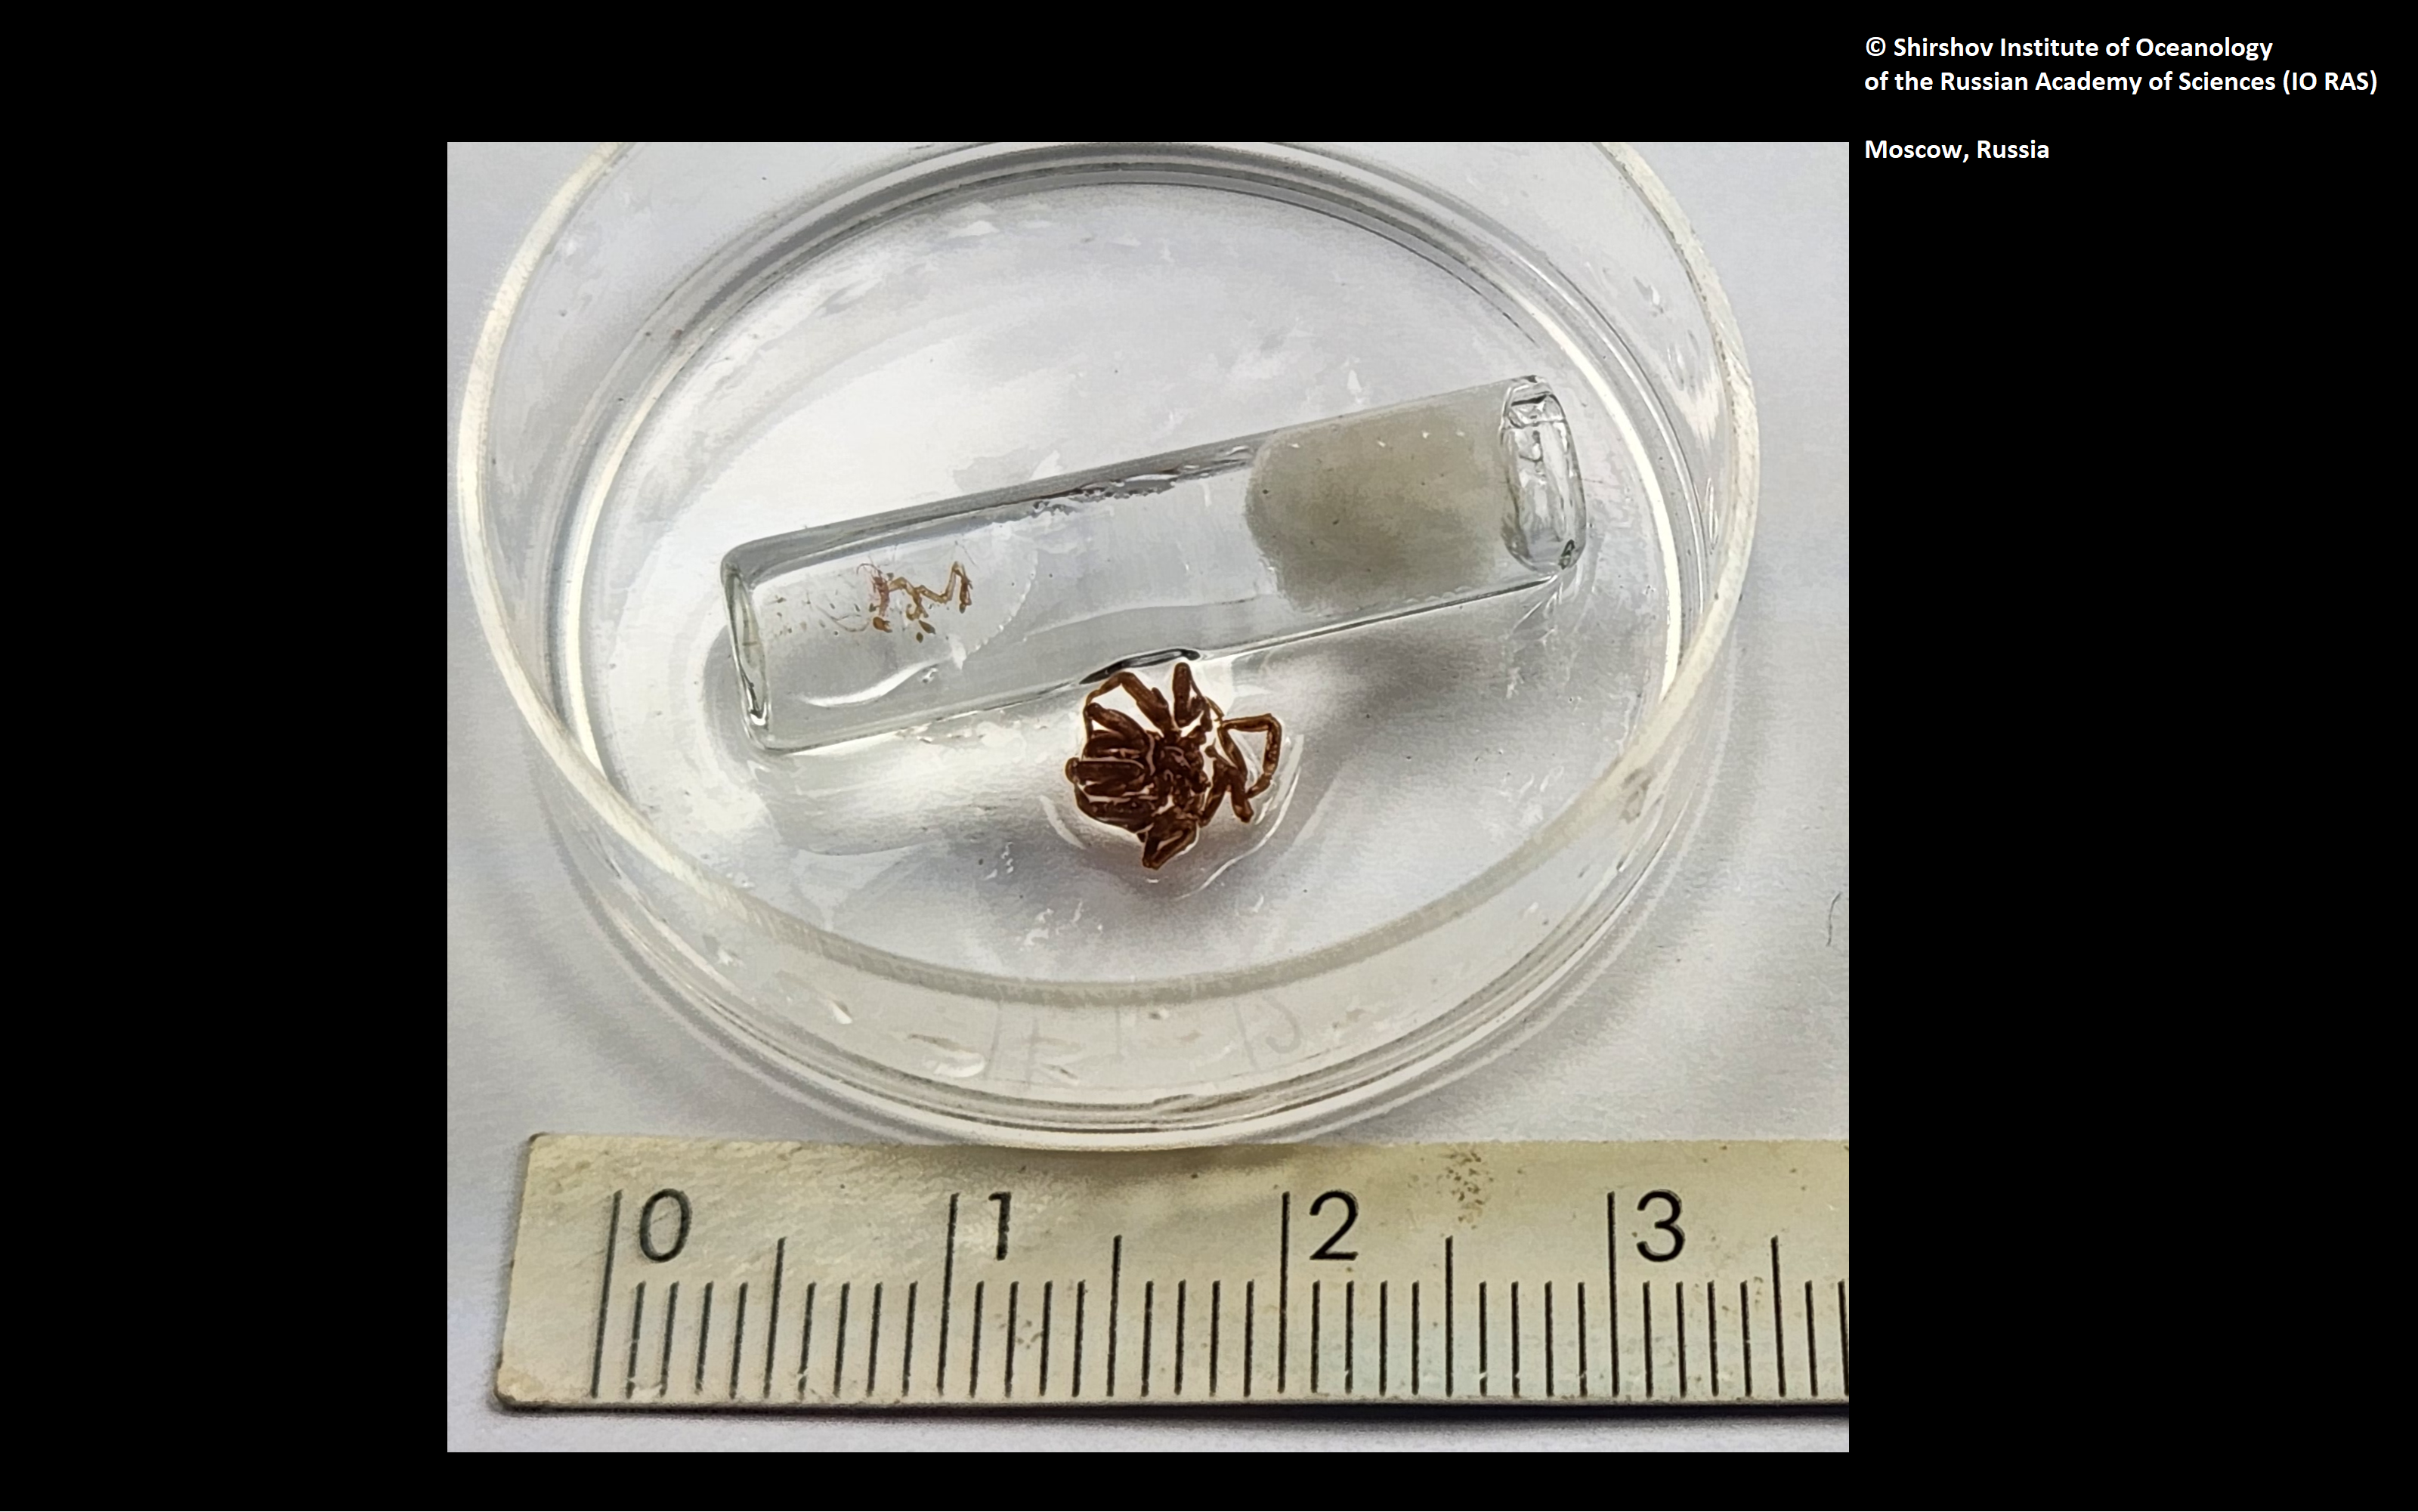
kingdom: Animalia
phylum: Arthropoda
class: Pycnogonida
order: Pantopoda
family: Ammotheidae
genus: Achelia
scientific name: Achelia
